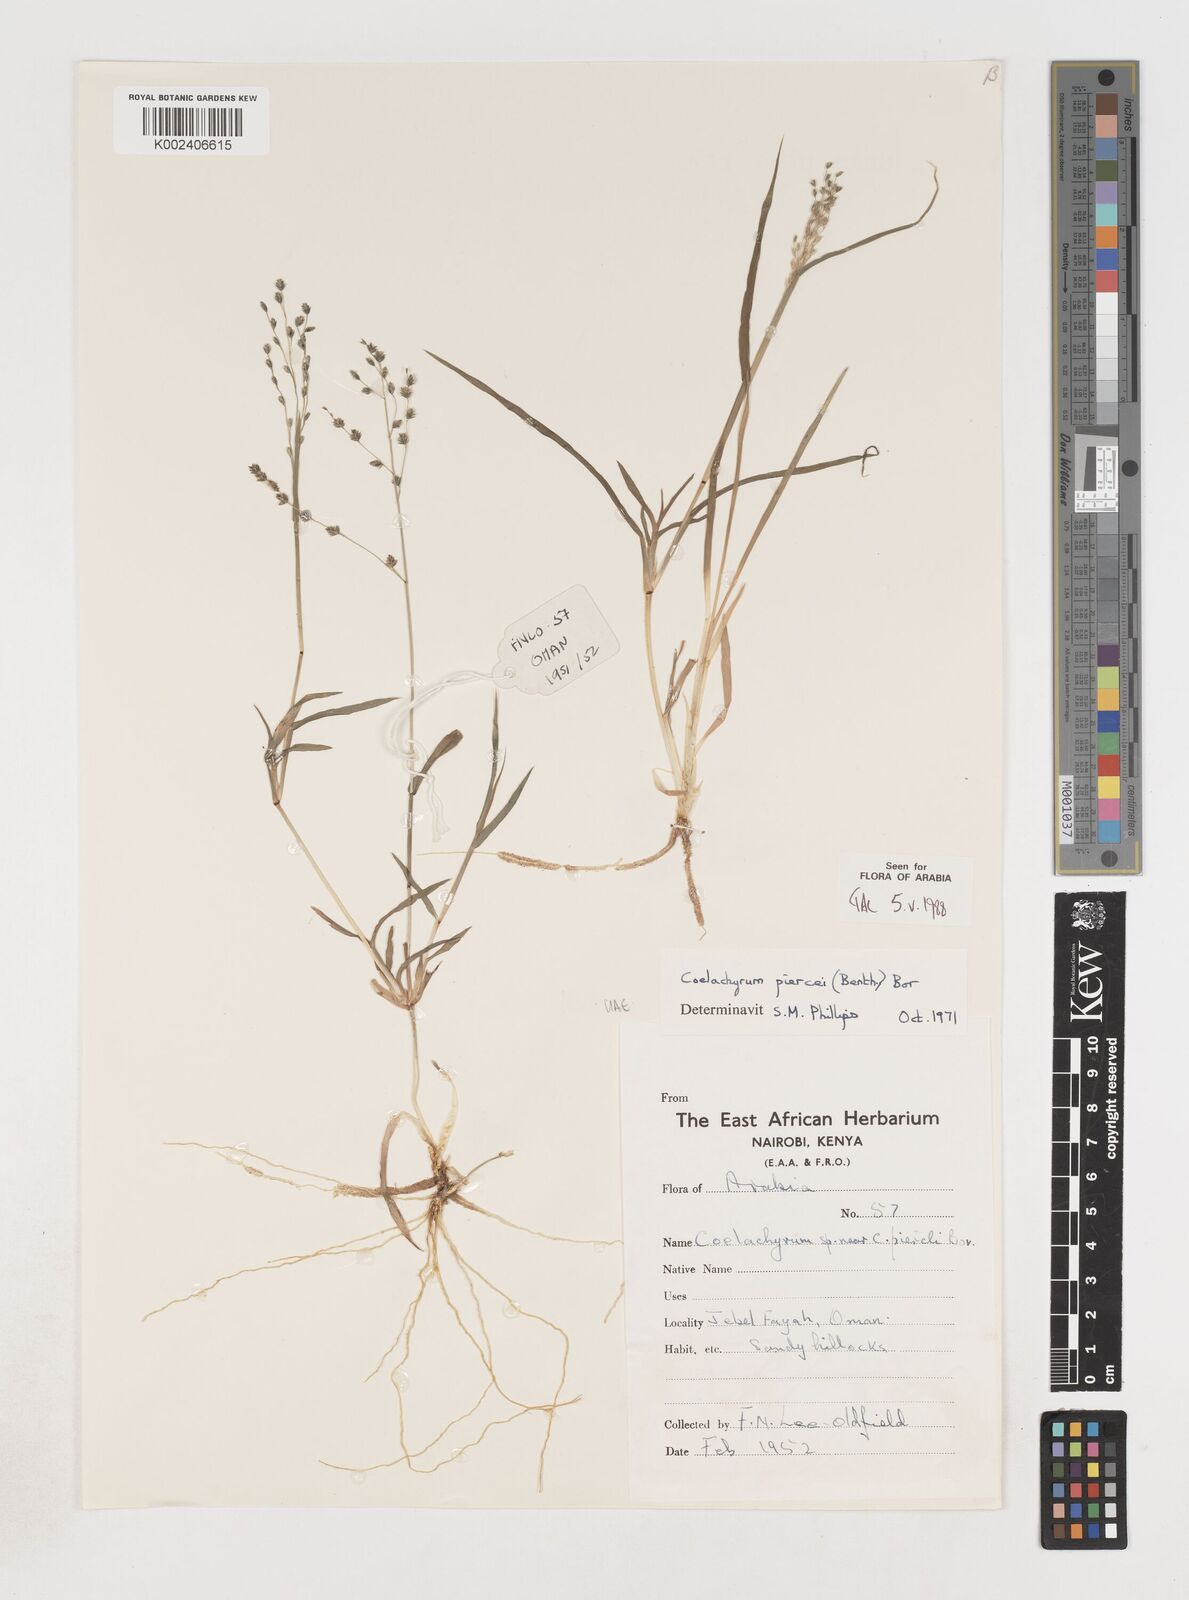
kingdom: Plantae
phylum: Tracheophyta
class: Liliopsida
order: Poales
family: Poaceae
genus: Coelachyrum
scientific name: Coelachyrum piercei
